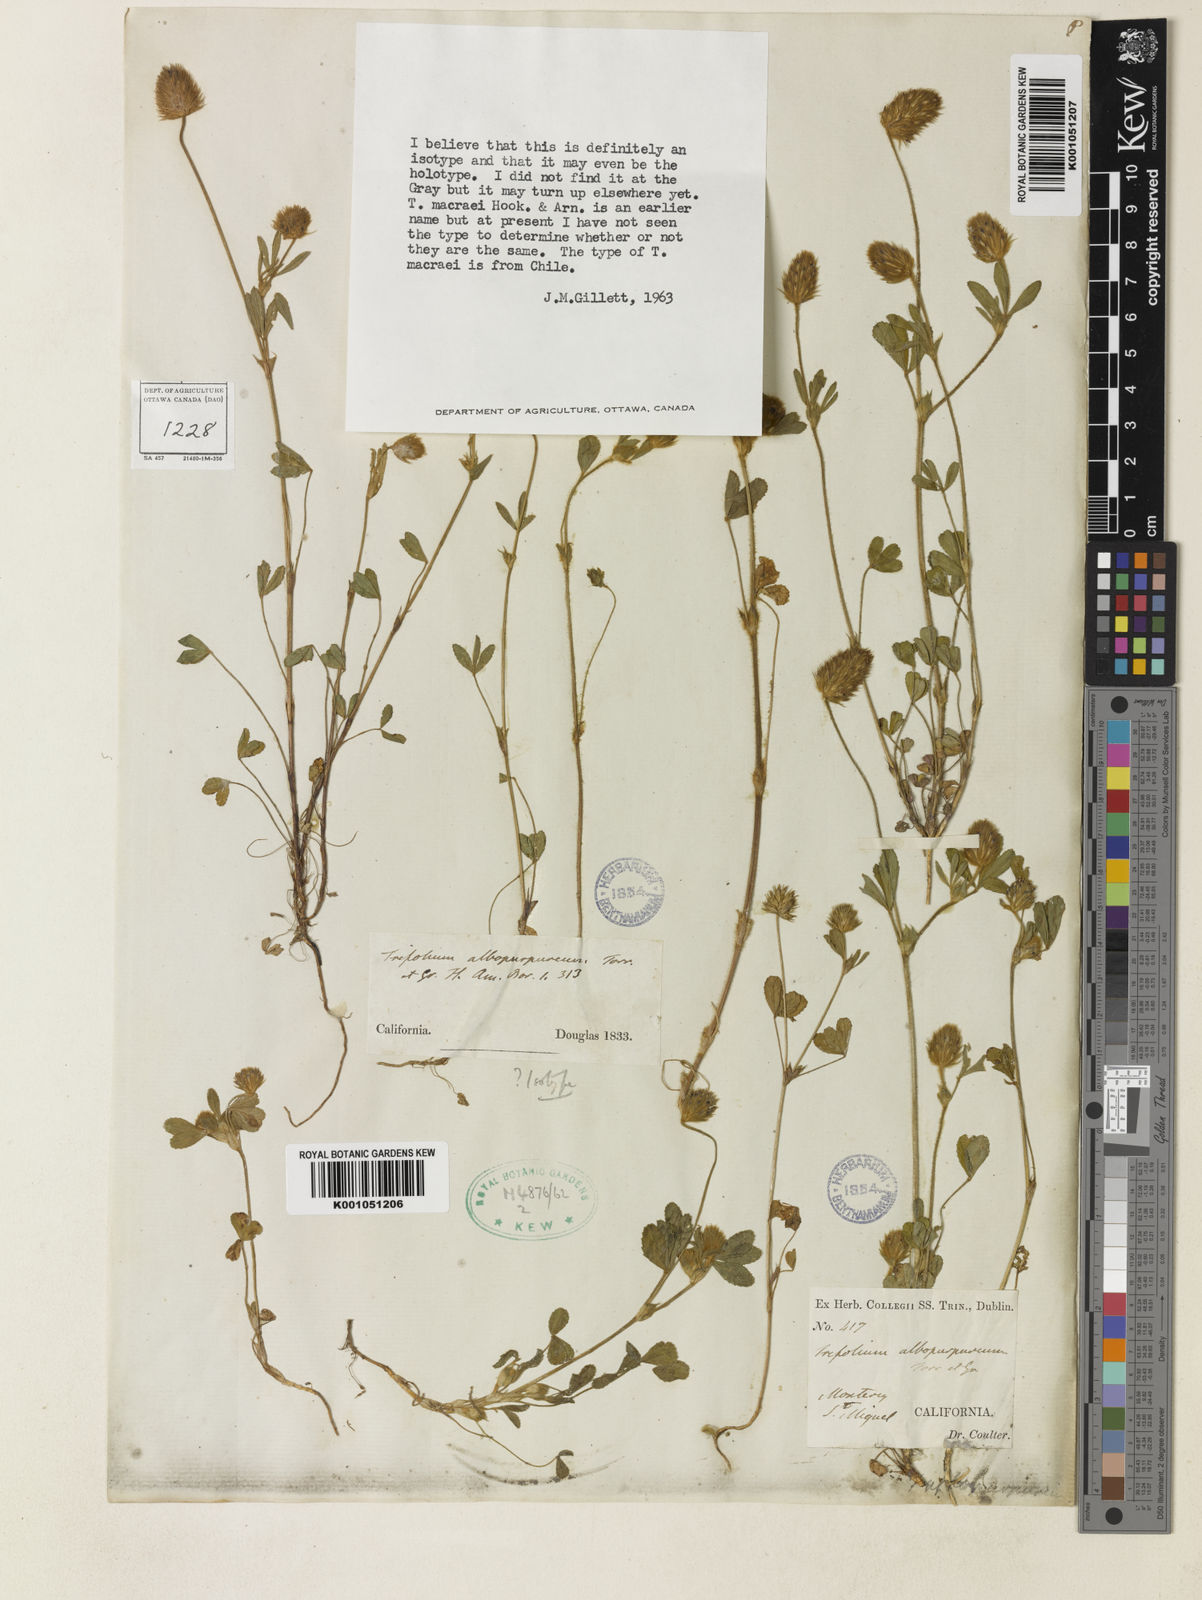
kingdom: Plantae
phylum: Tracheophyta
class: Magnoliopsida
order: Fabales
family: Fabaceae
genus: Trifolium
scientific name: Trifolium albopurpureum
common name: Rancheria clover
